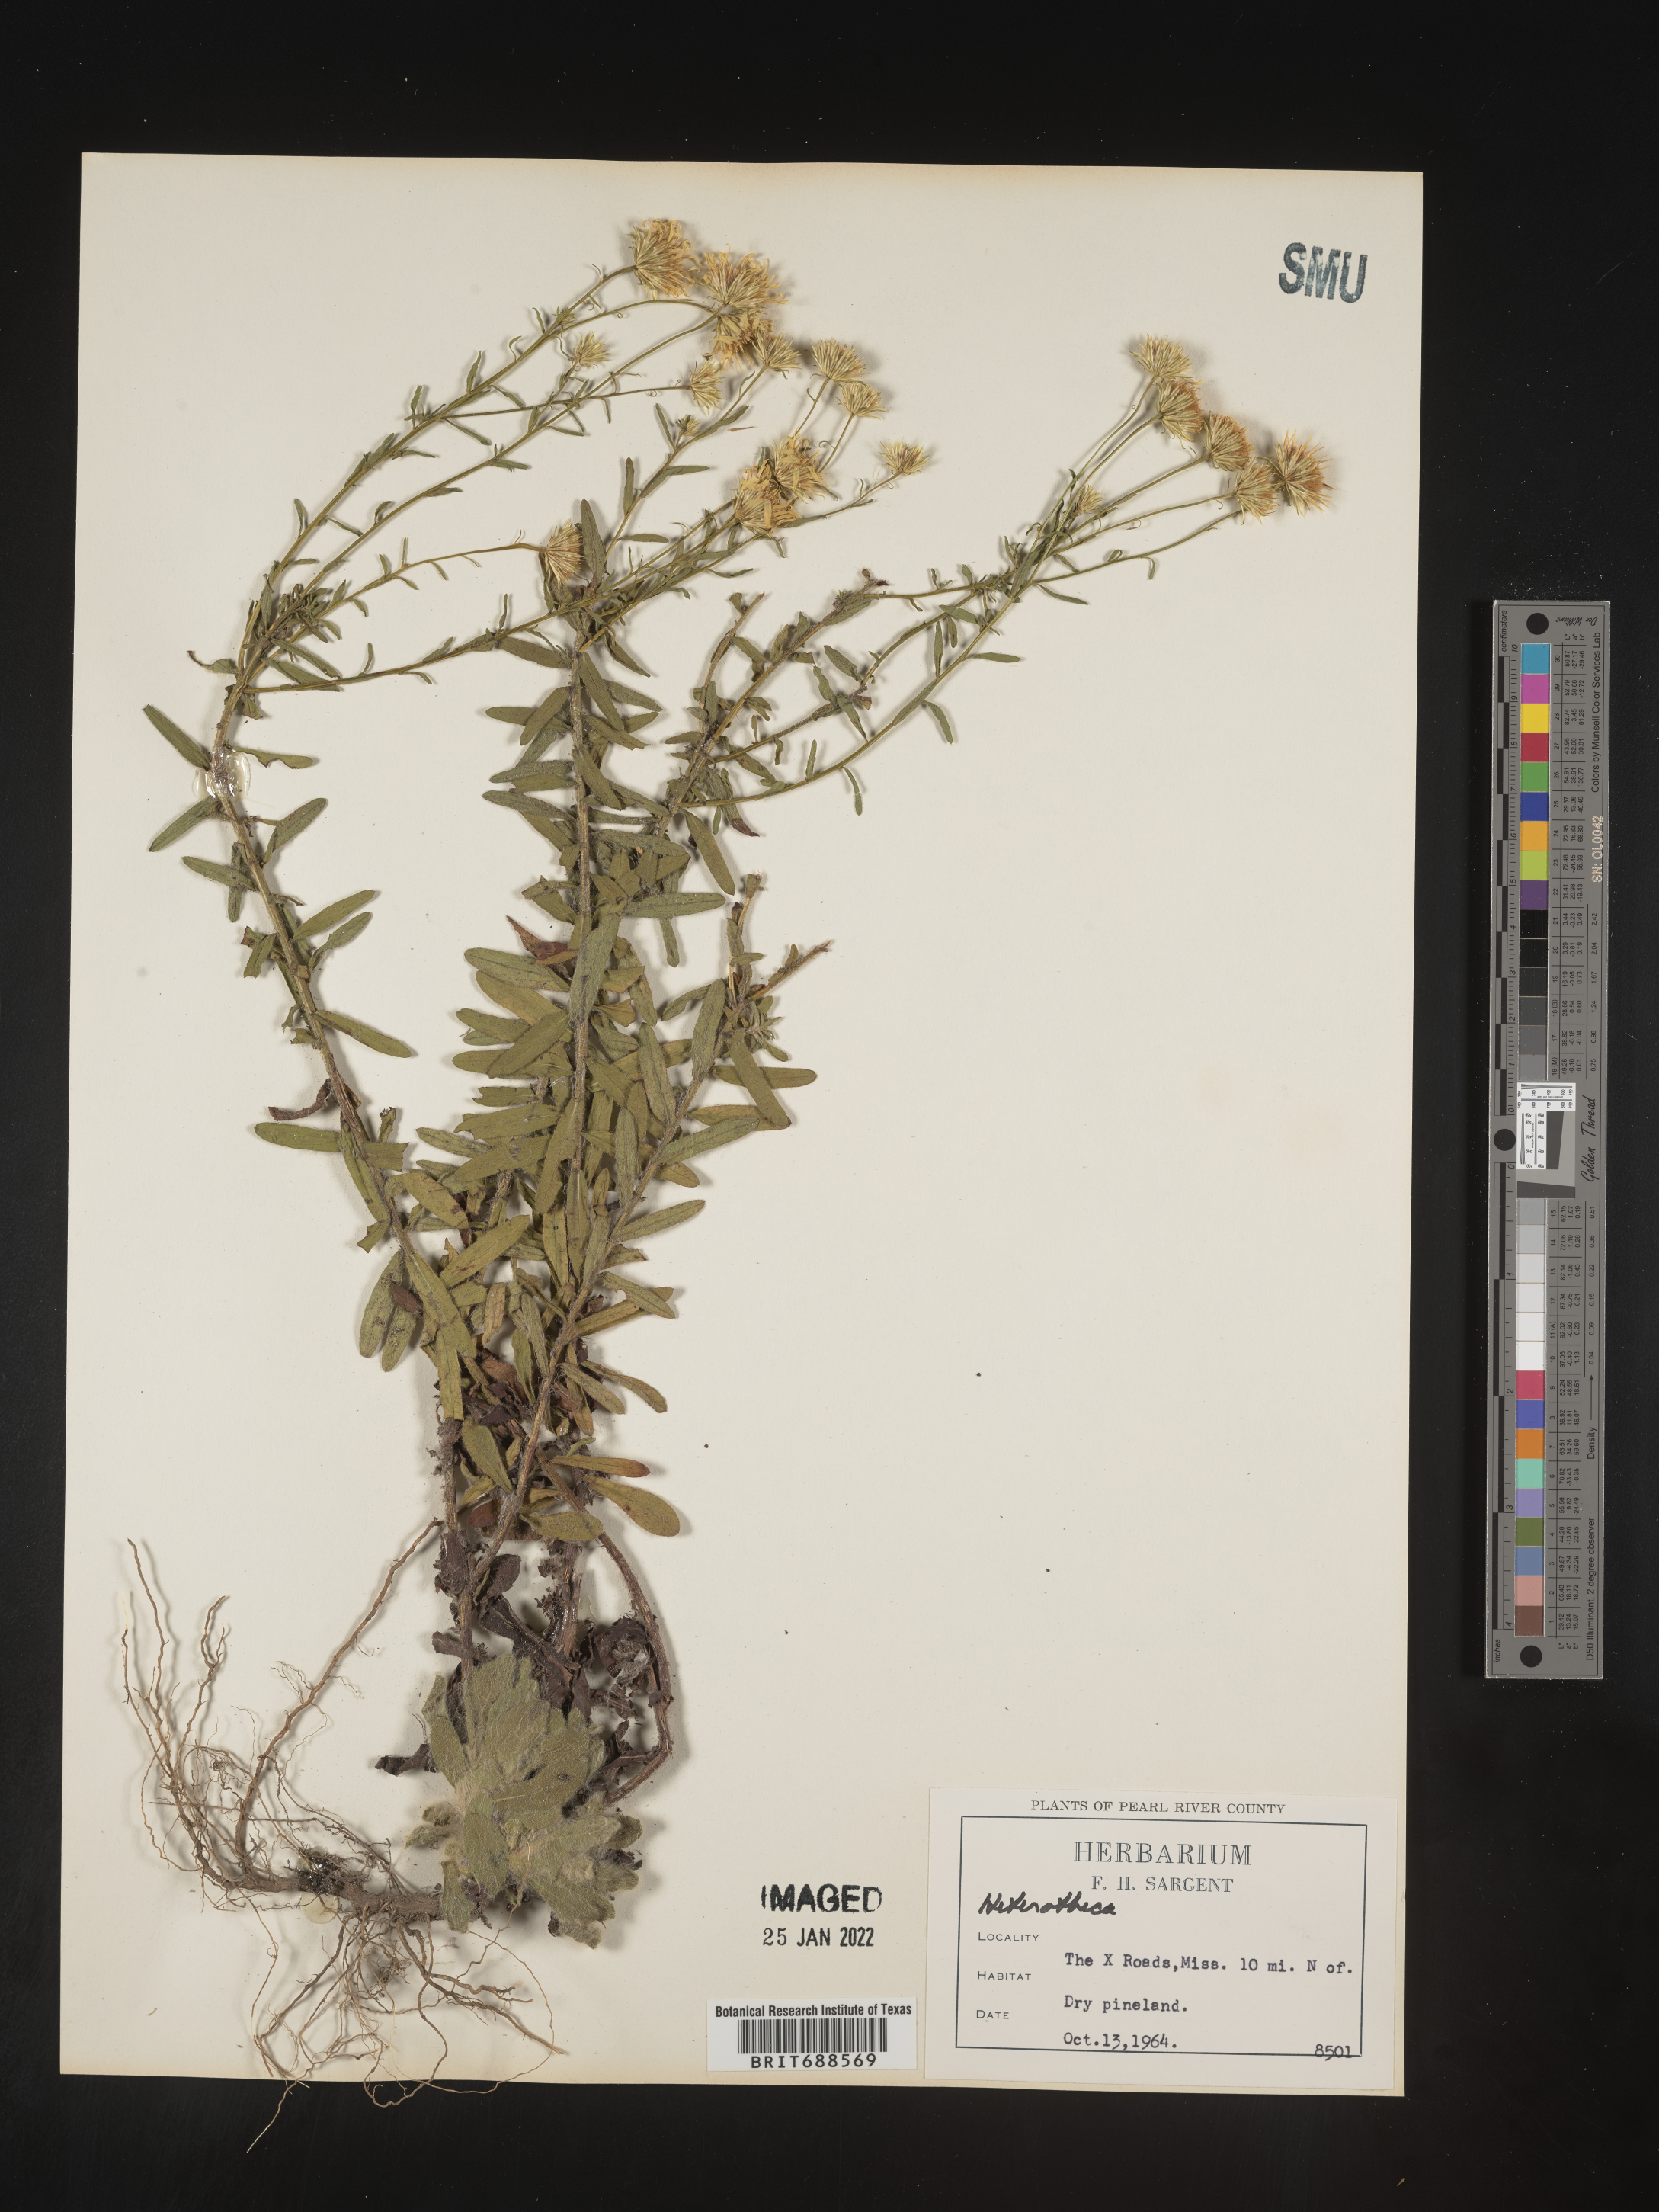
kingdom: Plantae
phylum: Tracheophyta
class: Magnoliopsida
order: Asterales
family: Asteraceae
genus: Chrysopsis
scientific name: Chrysopsis gossypina
